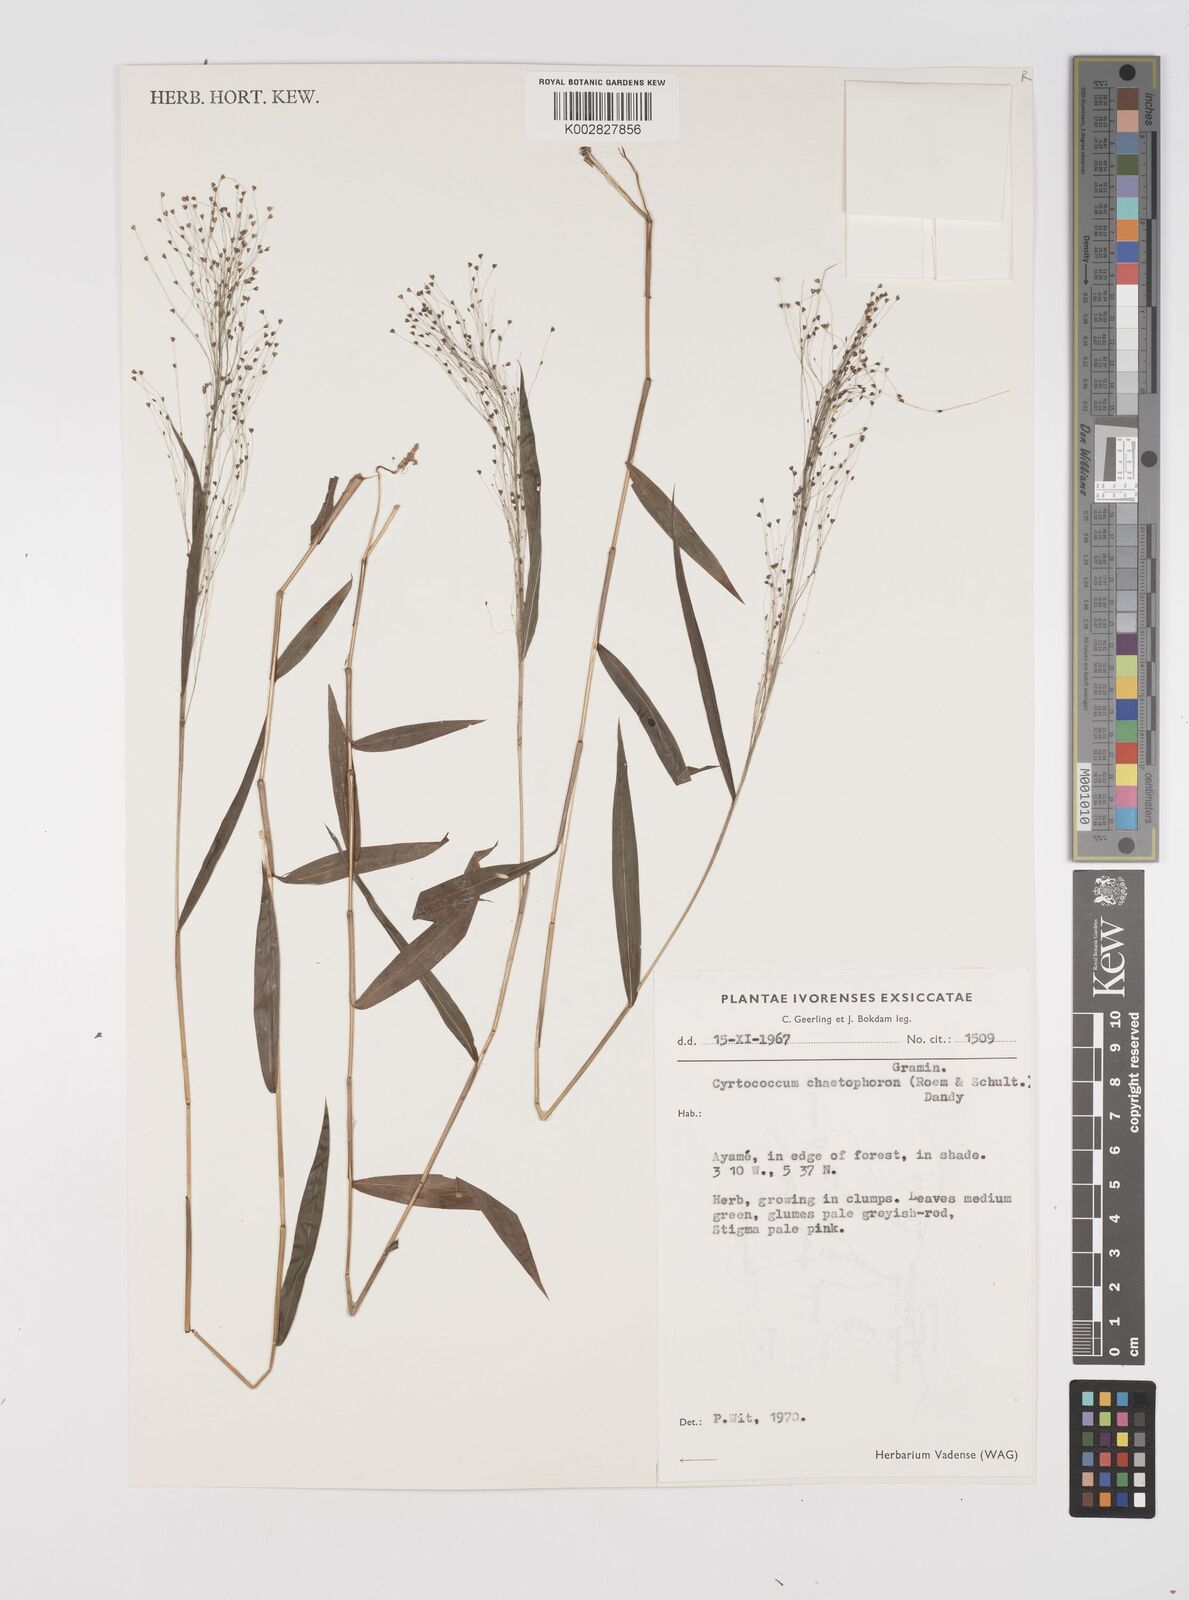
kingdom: Plantae
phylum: Tracheophyta
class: Liliopsida
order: Poales
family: Poaceae
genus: Cyrtococcum
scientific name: Cyrtococcum chaetophoron
